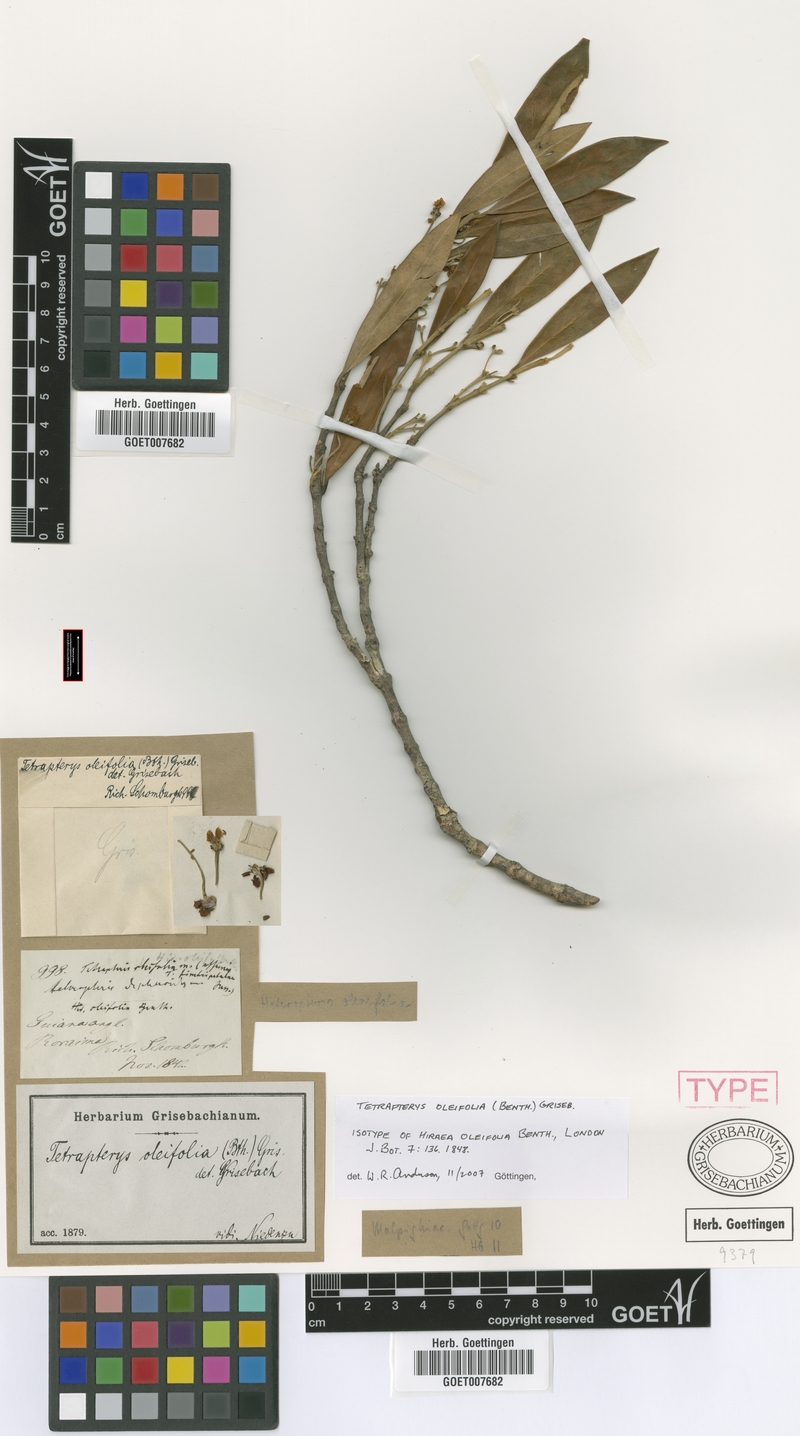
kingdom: Plantae
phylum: Tracheophyta
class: Magnoliopsida
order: Malpighiales
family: Malpighiaceae
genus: Glicophyllum
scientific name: Glicophyllum oleifolium
